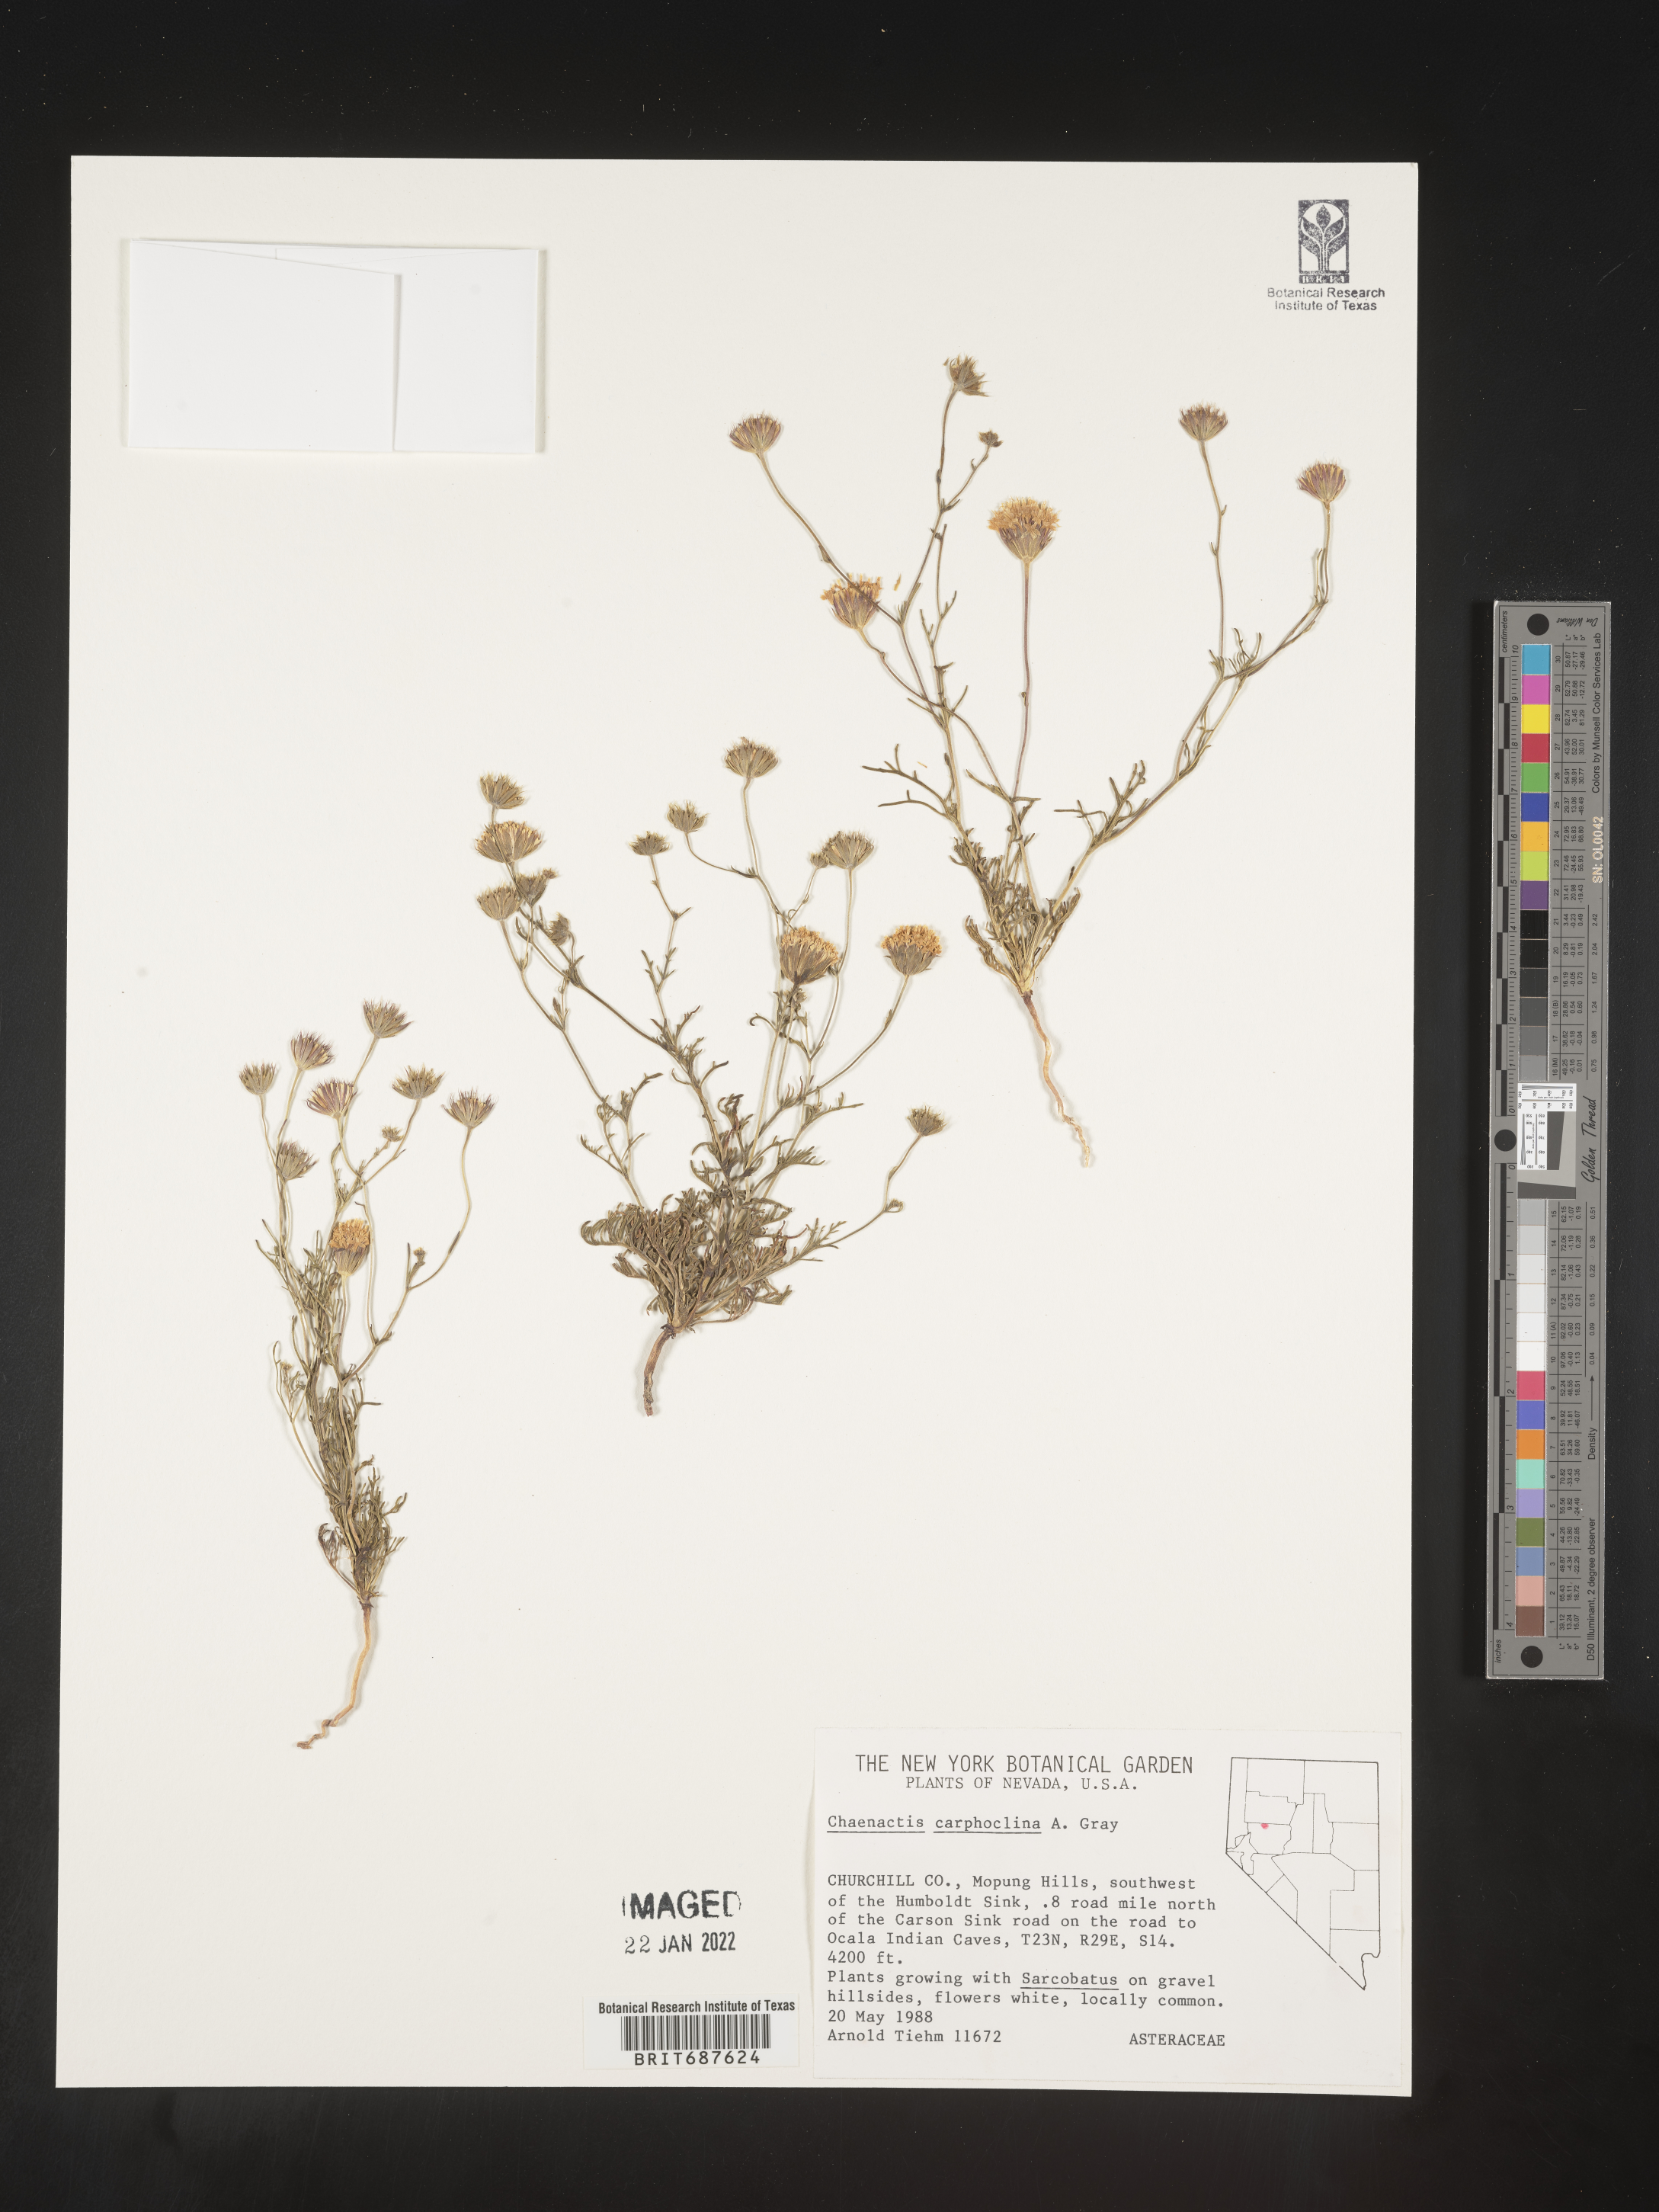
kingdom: Plantae
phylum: Tracheophyta
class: Magnoliopsida
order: Asterales
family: Asteraceae
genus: Chaenactis
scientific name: Chaenactis carphoclinia
